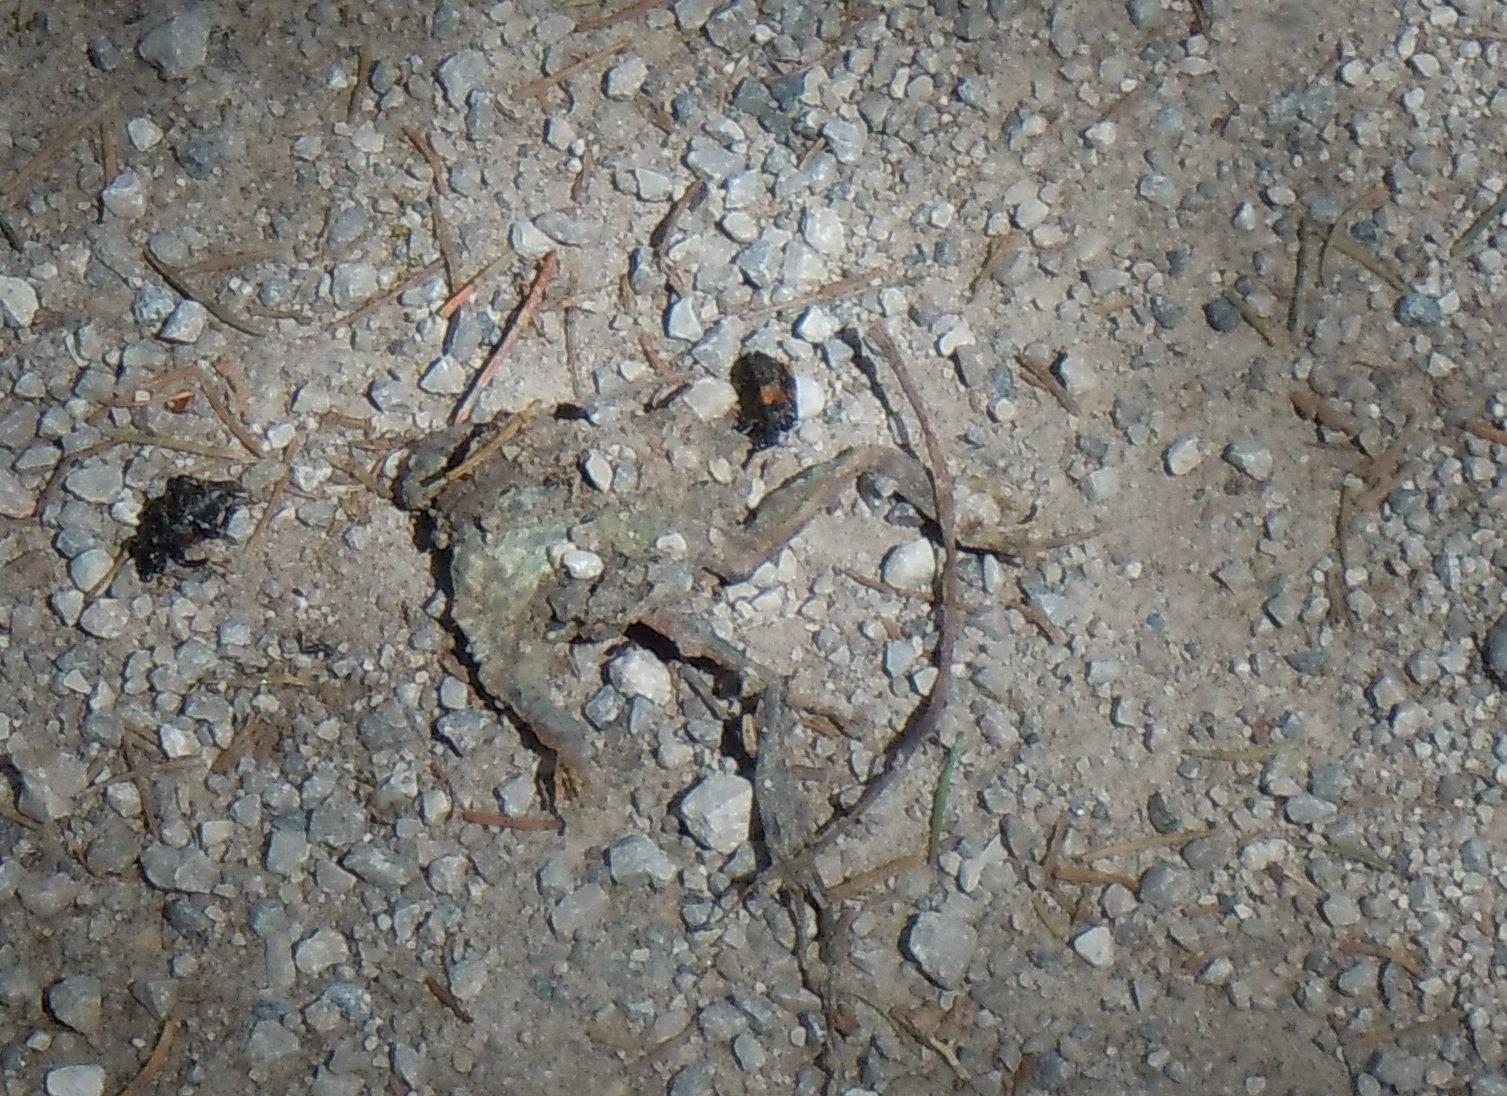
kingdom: Animalia
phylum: Chordata
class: Amphibia
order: Anura
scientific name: Anura
